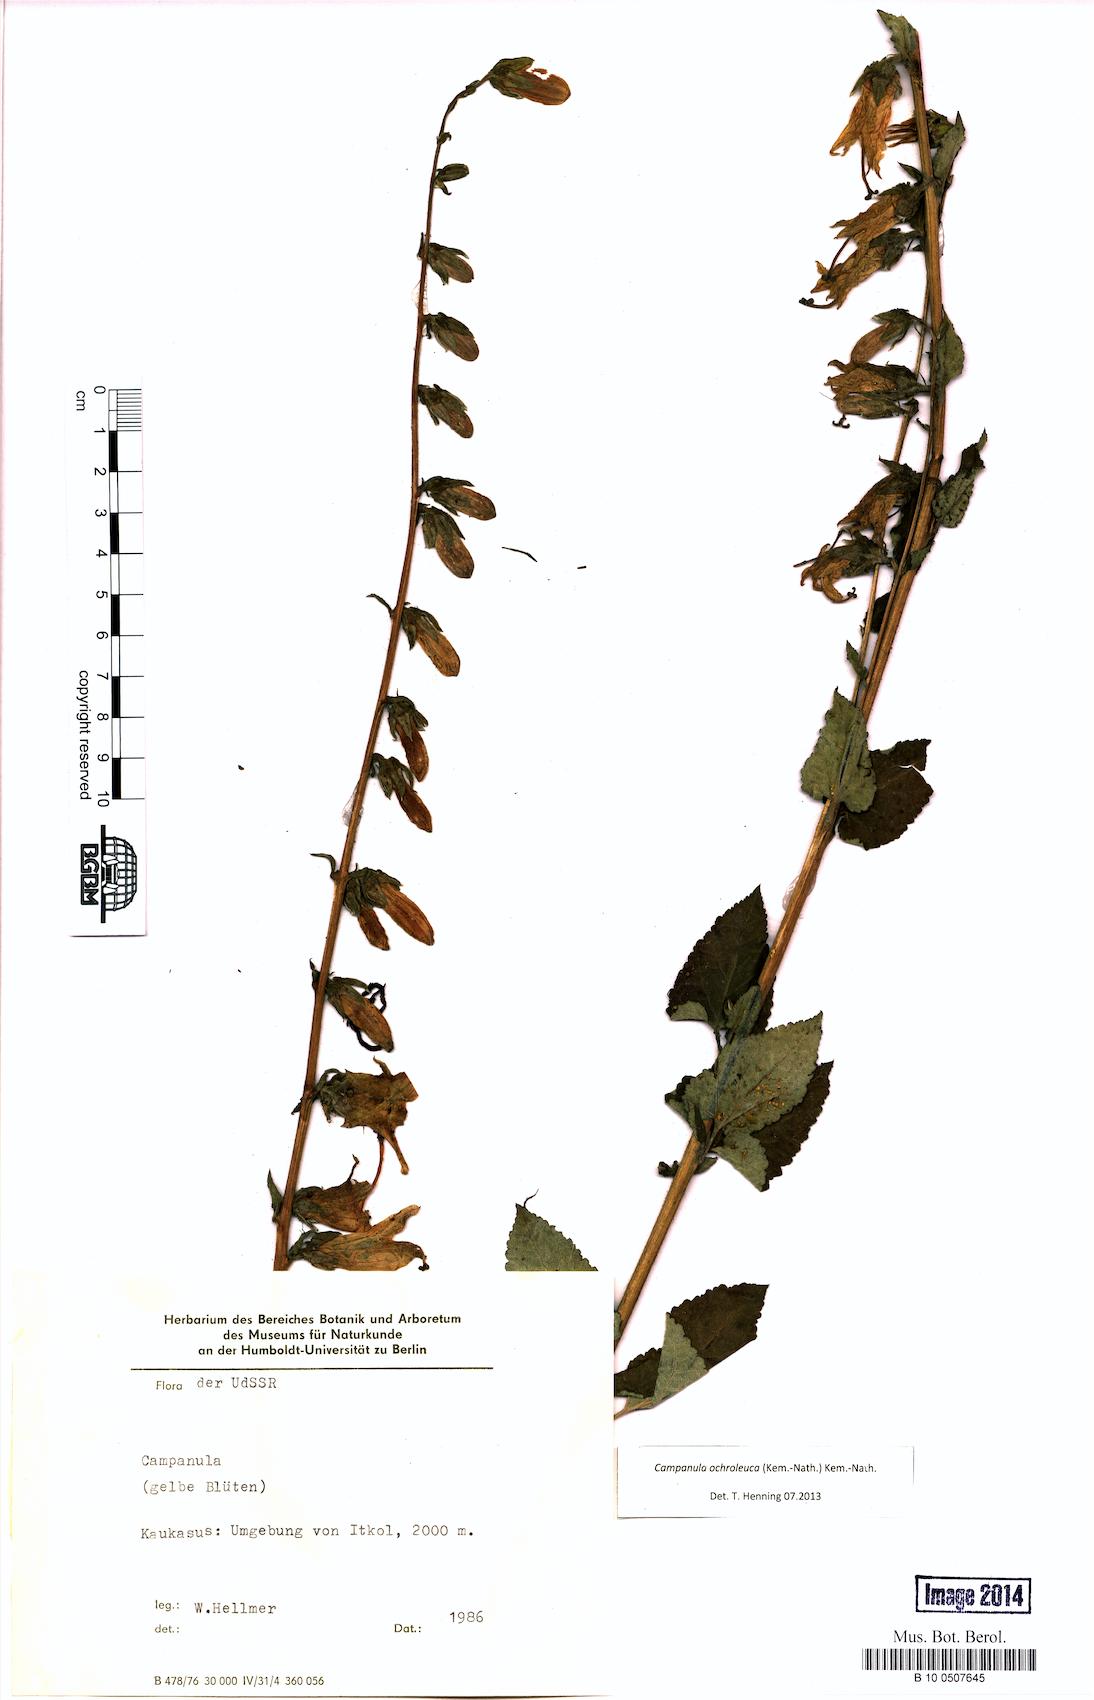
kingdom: Plantae
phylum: Tracheophyta
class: Magnoliopsida
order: Asterales
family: Campanulaceae
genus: Campanula
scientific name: Campanula alliariifolia
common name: Cornish bellflower
